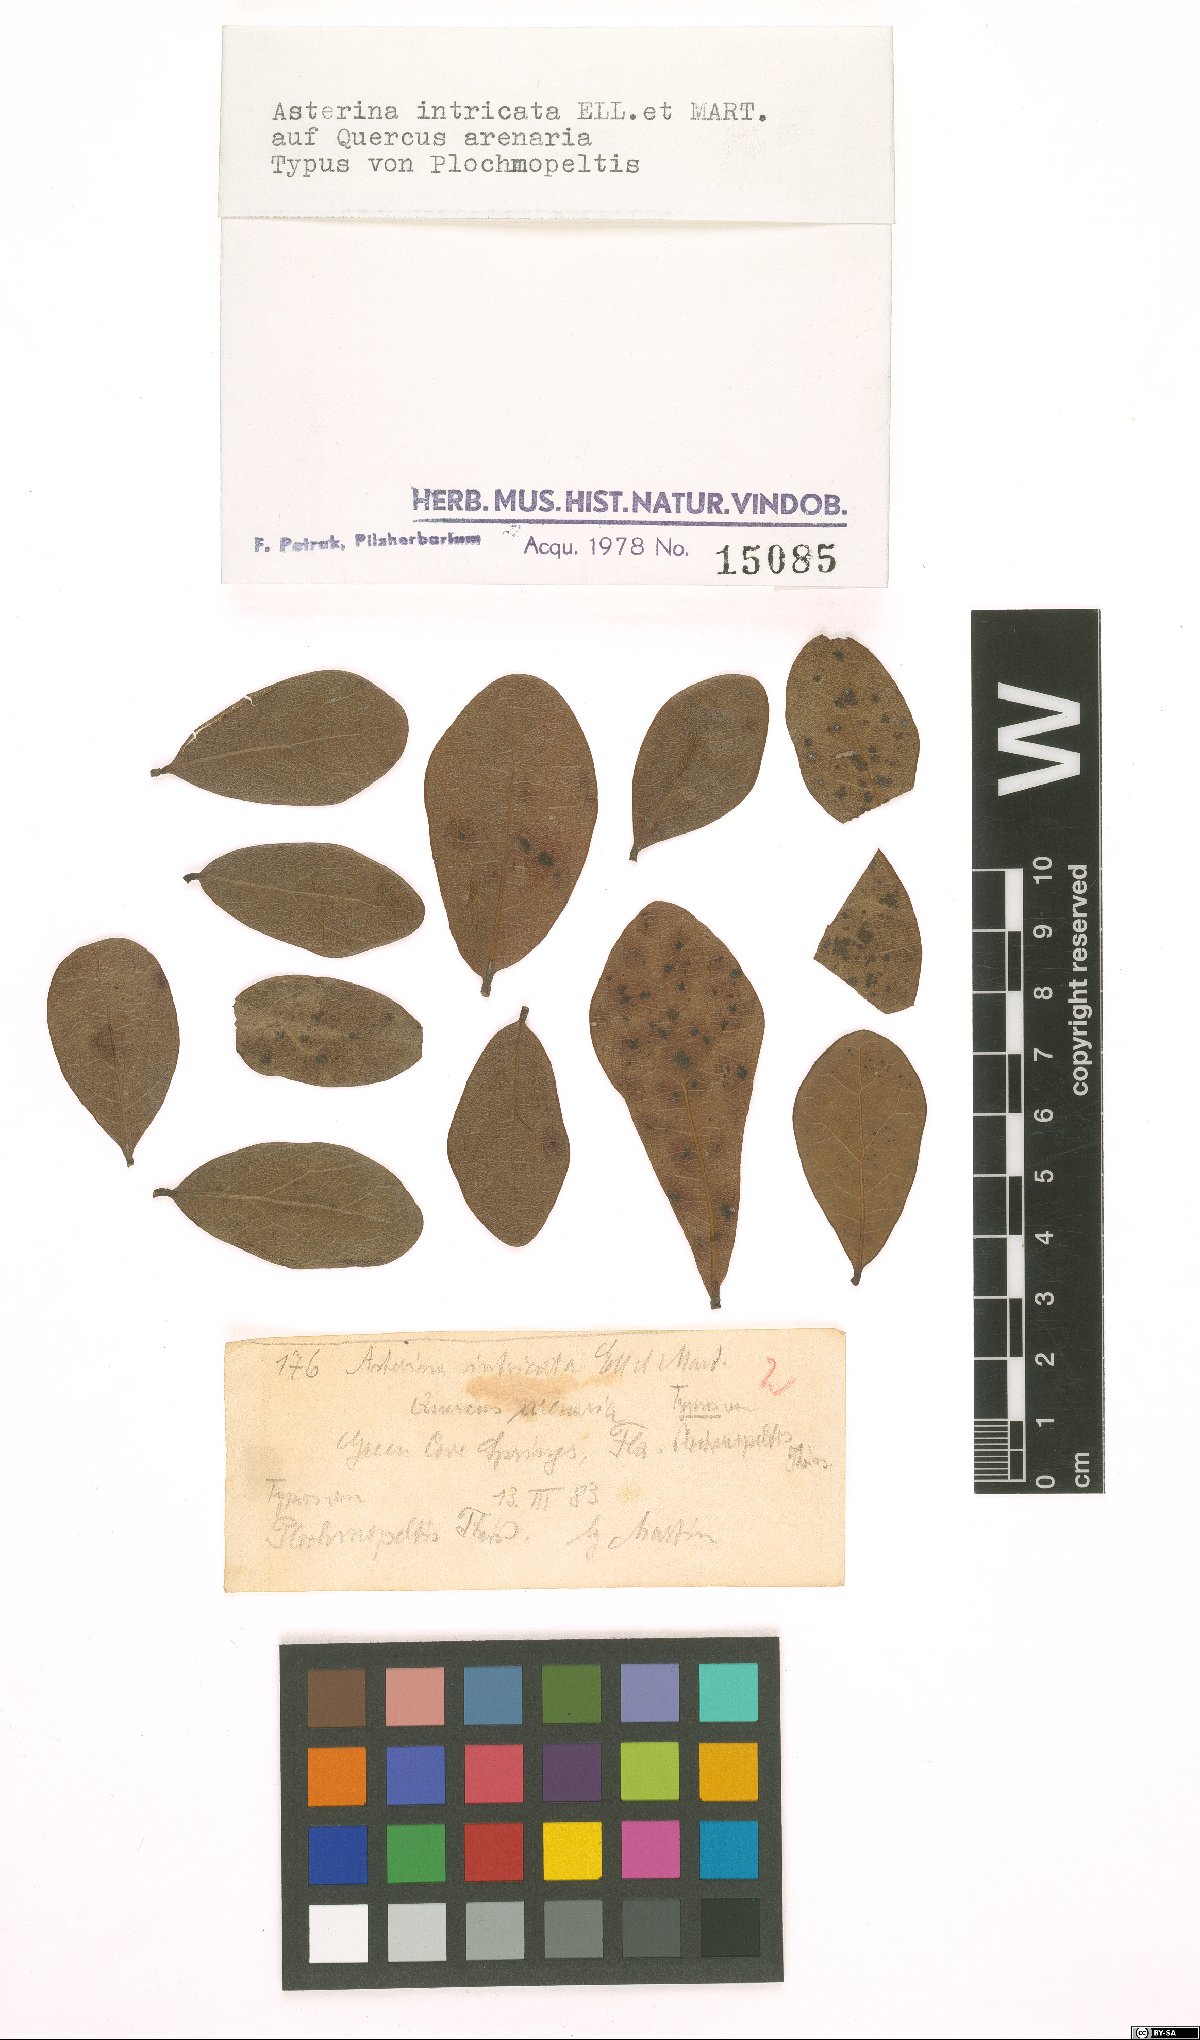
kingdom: Fungi
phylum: Ascomycota
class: Dothideomycetes
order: Mycosphaerellales
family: Schizothyriaceae
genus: Plochmopeltis
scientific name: Plochmopeltis intricata
